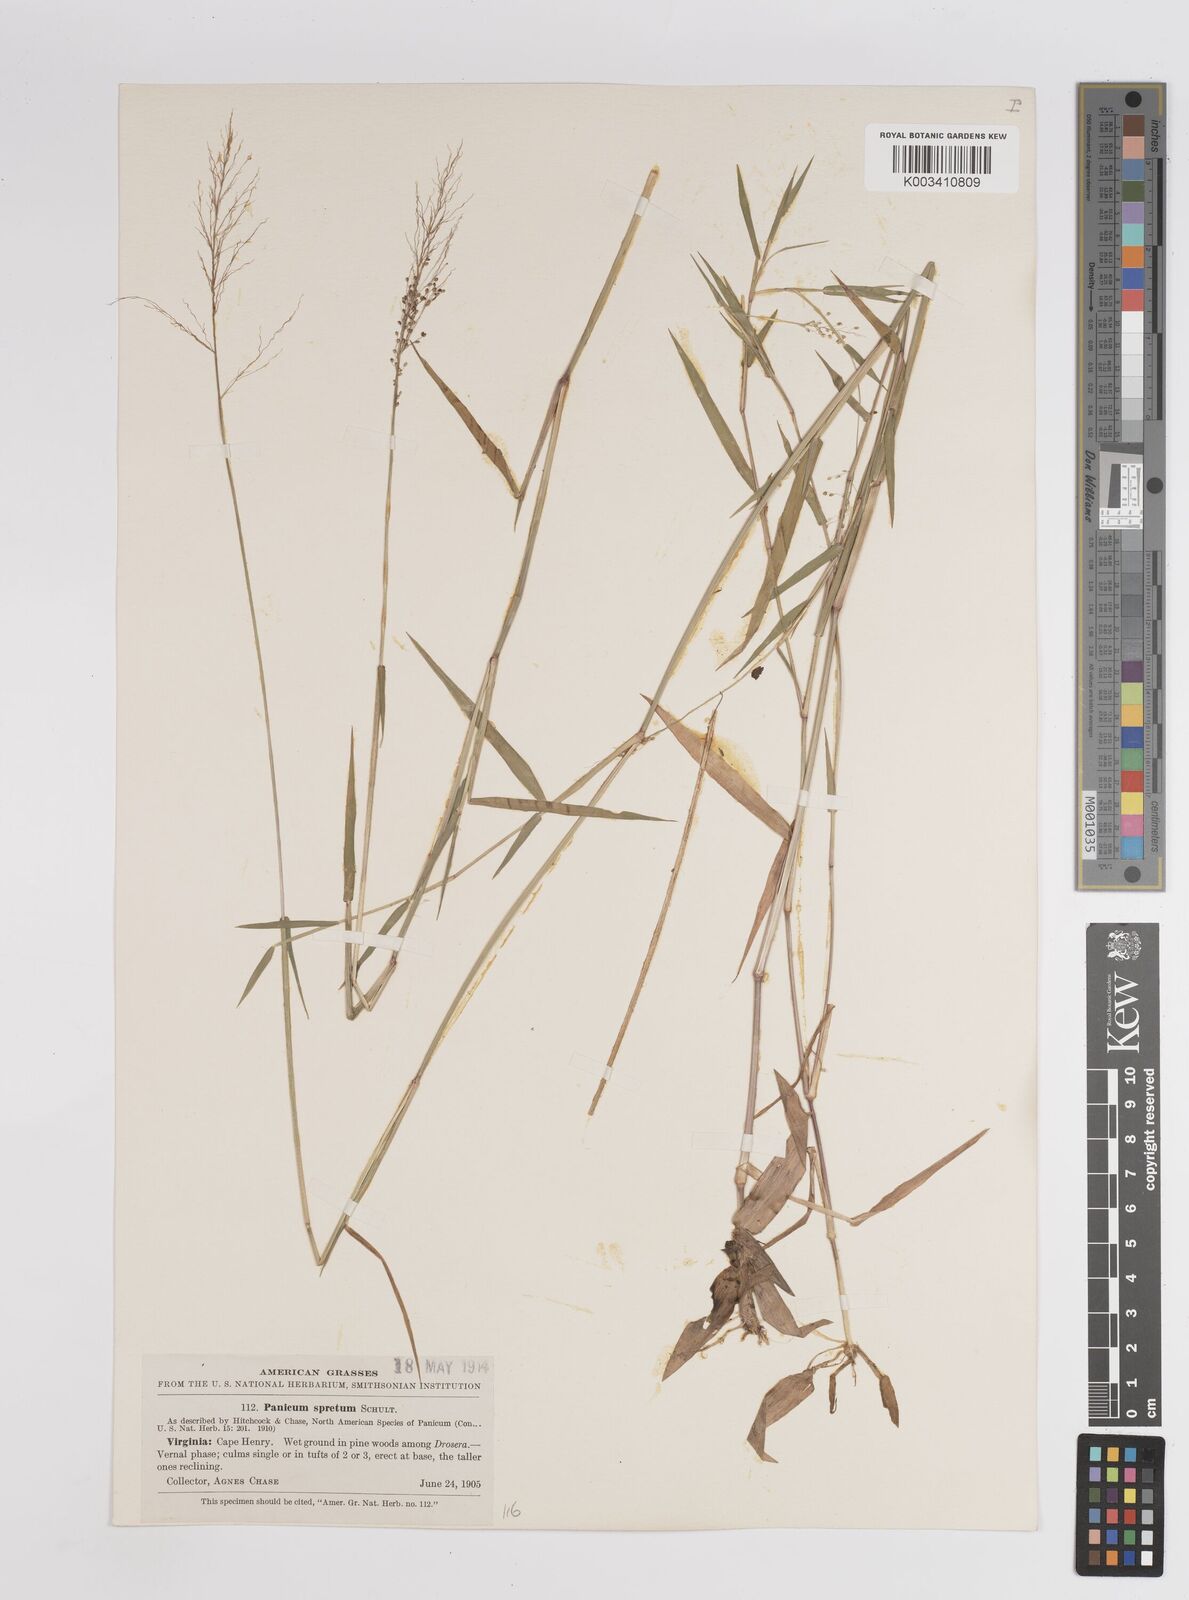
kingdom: Plantae
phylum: Tracheophyta
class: Liliopsida
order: Poales
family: Poaceae
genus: Dichanthelium
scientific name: Dichanthelium acuminatum
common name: Hairy panic grass
